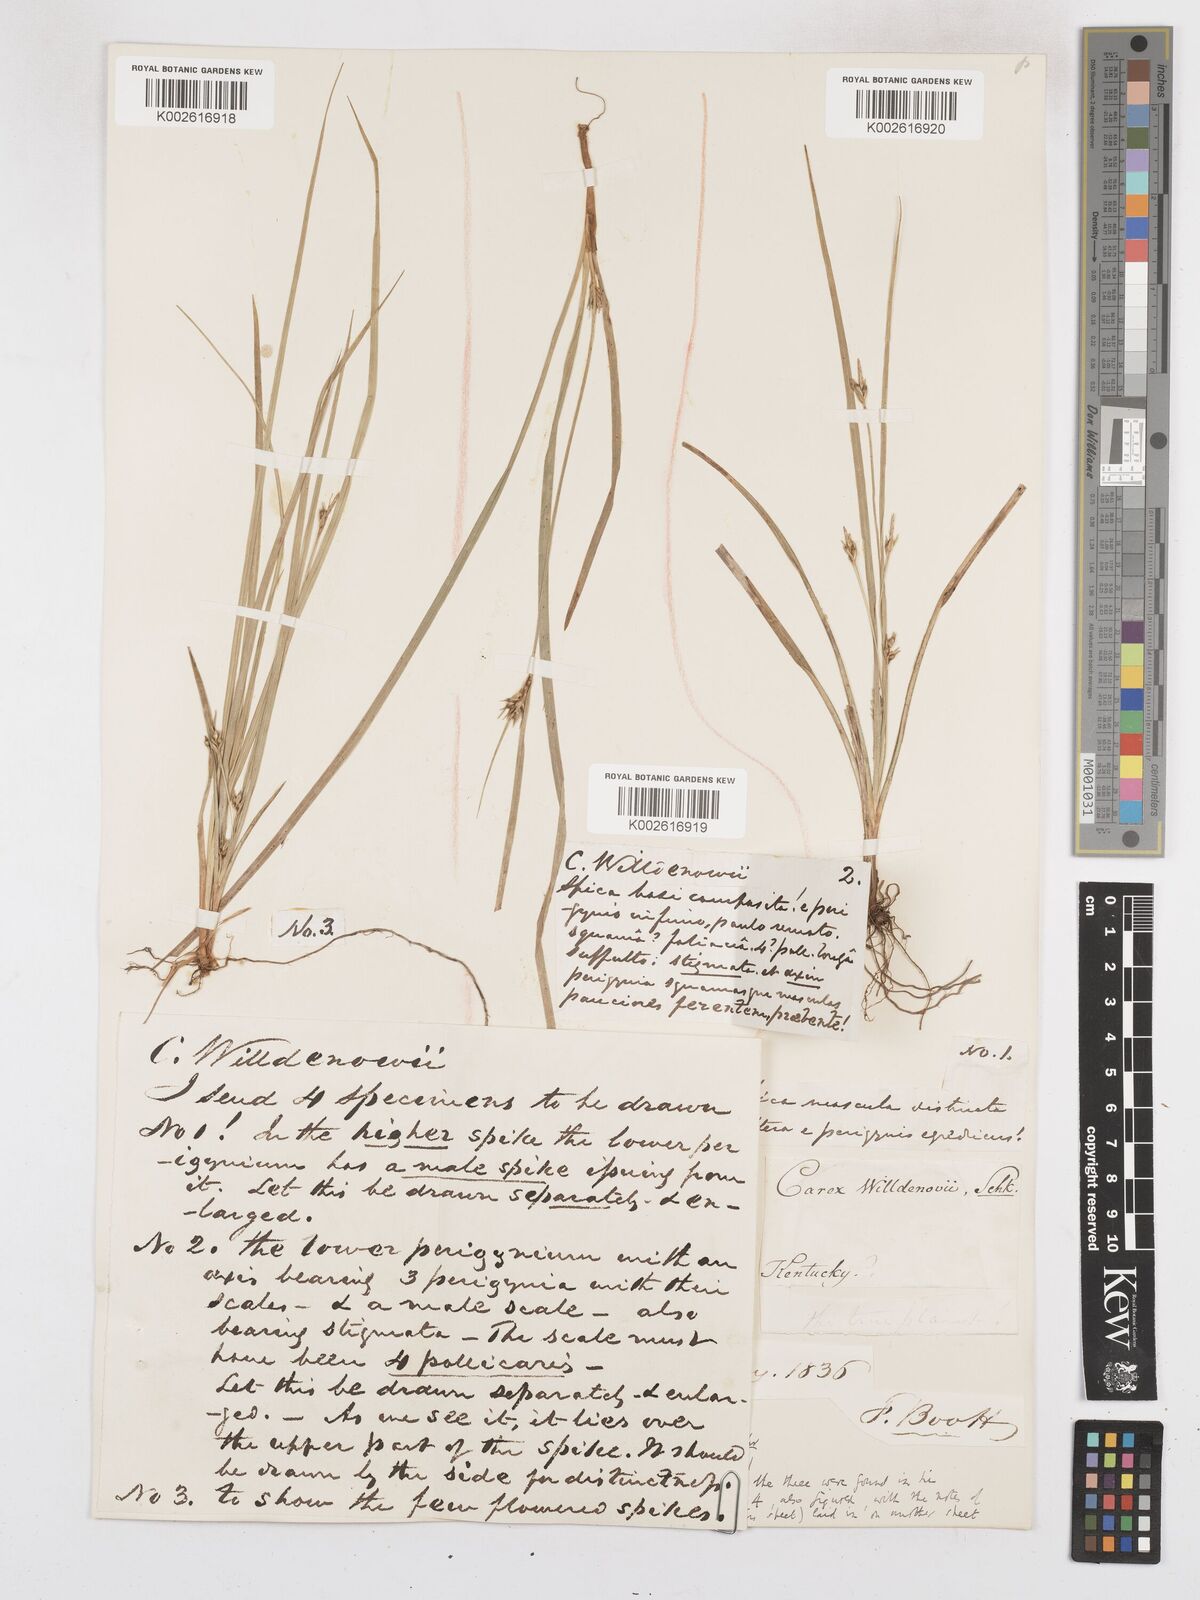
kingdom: Plantae
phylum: Tracheophyta
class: Liliopsida
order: Poales
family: Cyperaceae
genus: Carex
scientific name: Carex willdenowii
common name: Willdenow's sedge
